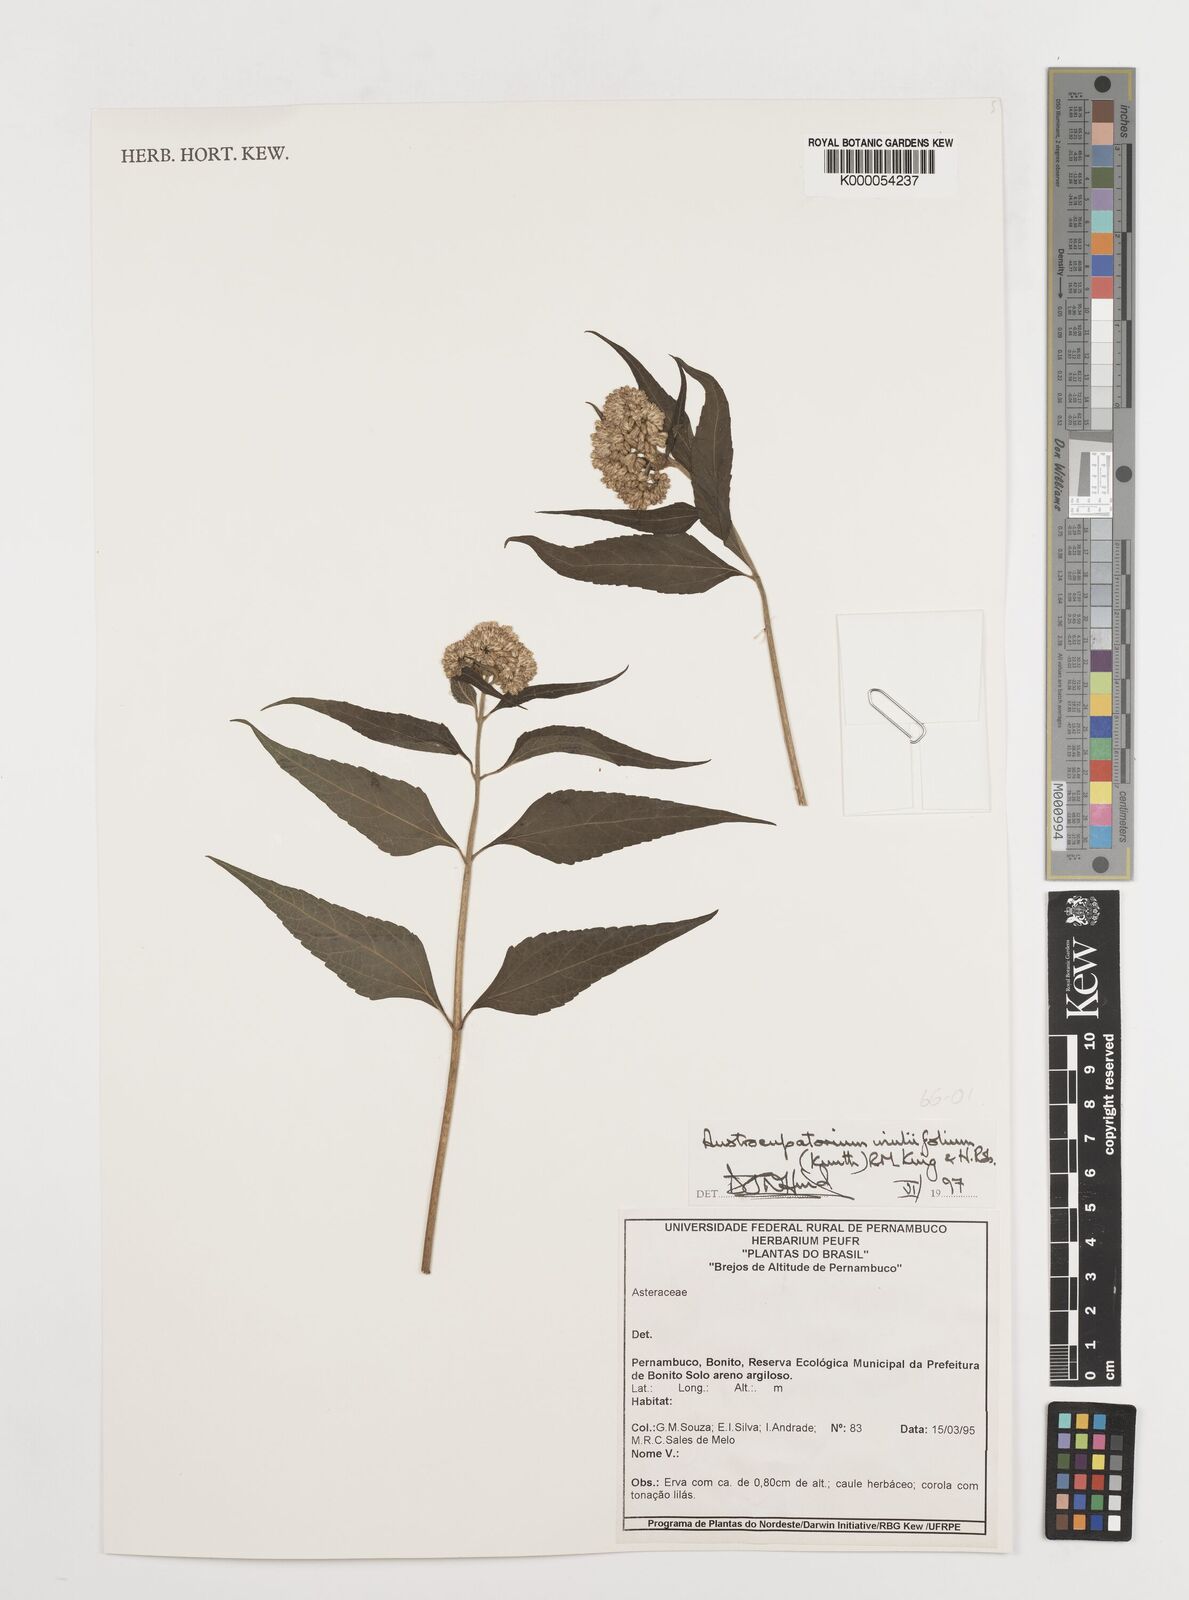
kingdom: Plantae
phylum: Tracheophyta
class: Magnoliopsida
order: Asterales
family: Asteraceae
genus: Austroeupatorium
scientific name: Austroeupatorium inulifolium
